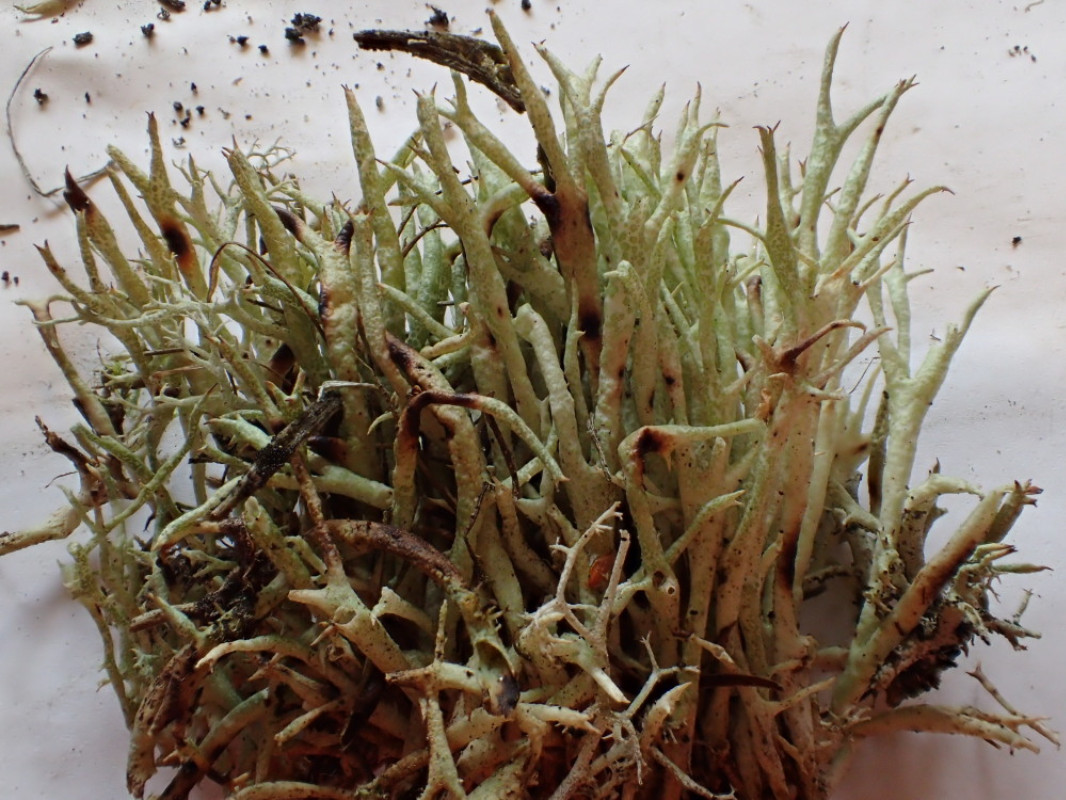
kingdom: Fungi
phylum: Ascomycota
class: Lecanoromycetes
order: Lecanorales
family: Cladoniaceae
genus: Cladonia
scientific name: Cladonia uncialis
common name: pigget bægerlav
